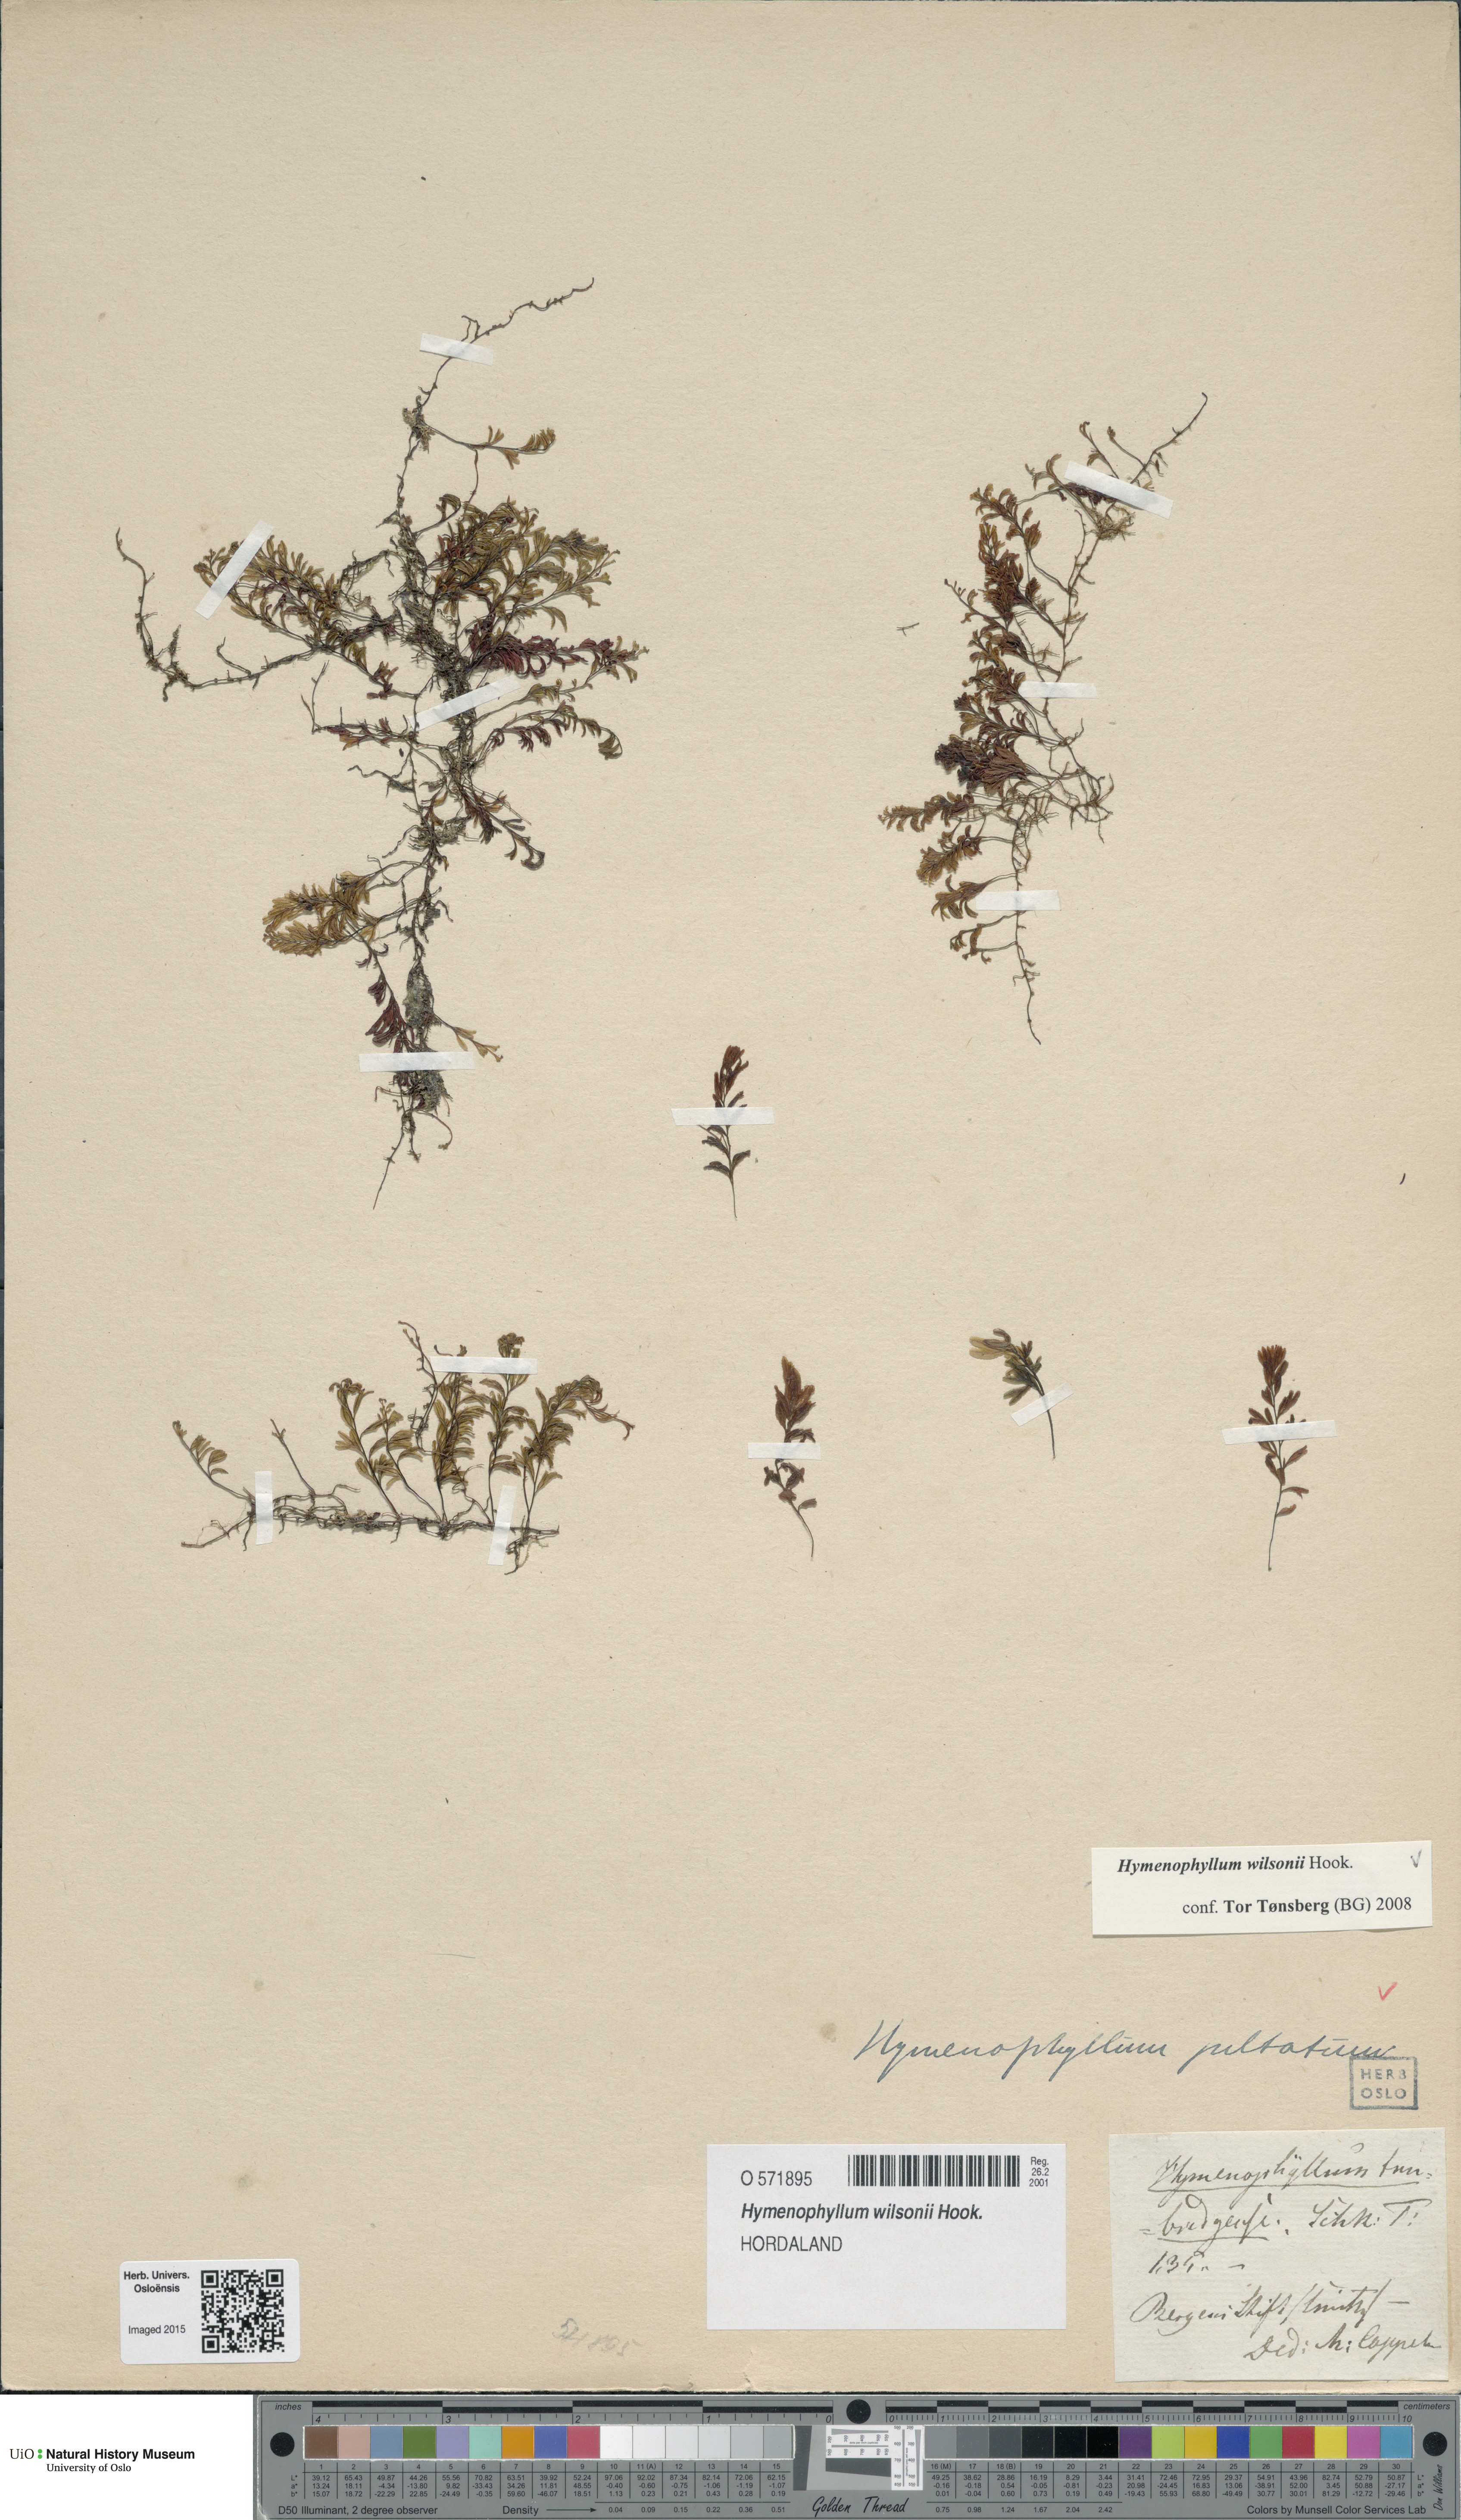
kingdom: Plantae
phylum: Tracheophyta
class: Polypodiopsida
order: Hymenophyllales
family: Hymenophyllaceae
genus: Hymenophyllum
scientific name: Hymenophyllum peltatum
